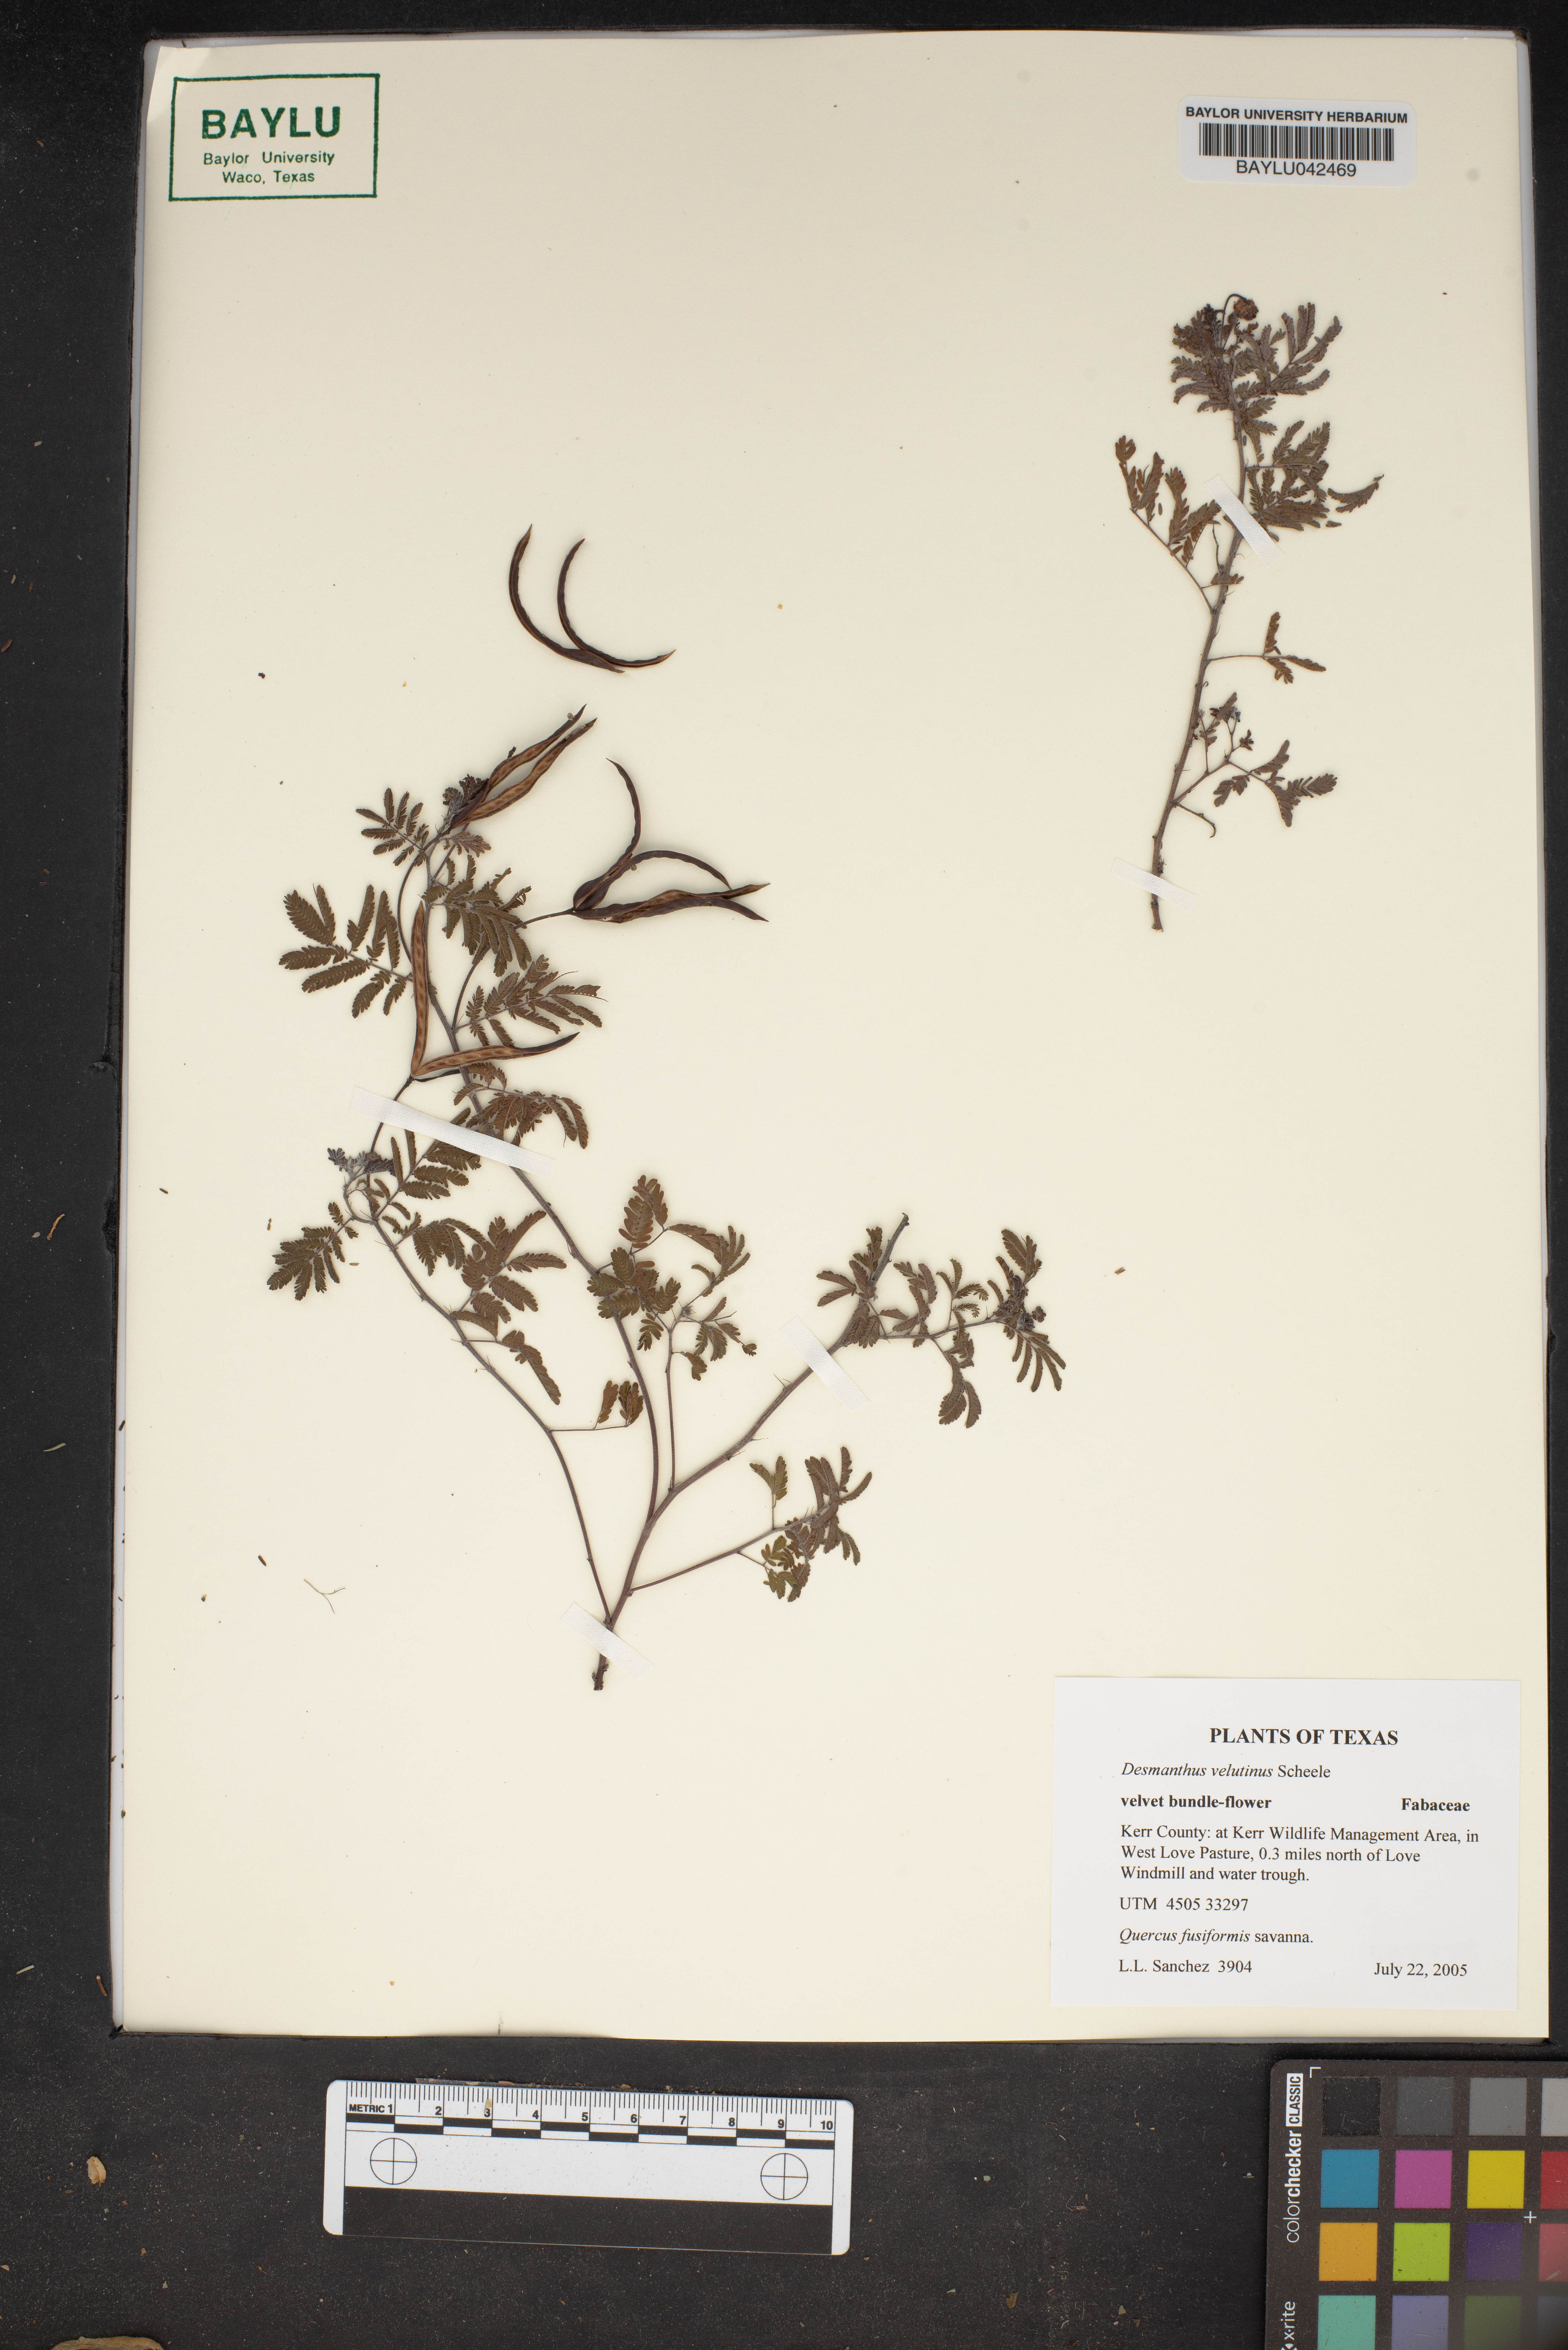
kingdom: Plantae
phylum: Tracheophyta
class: Magnoliopsida
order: Fabales
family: Fabaceae
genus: Desmanthus
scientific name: Desmanthus velutinus
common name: Velvet bundle-flower
